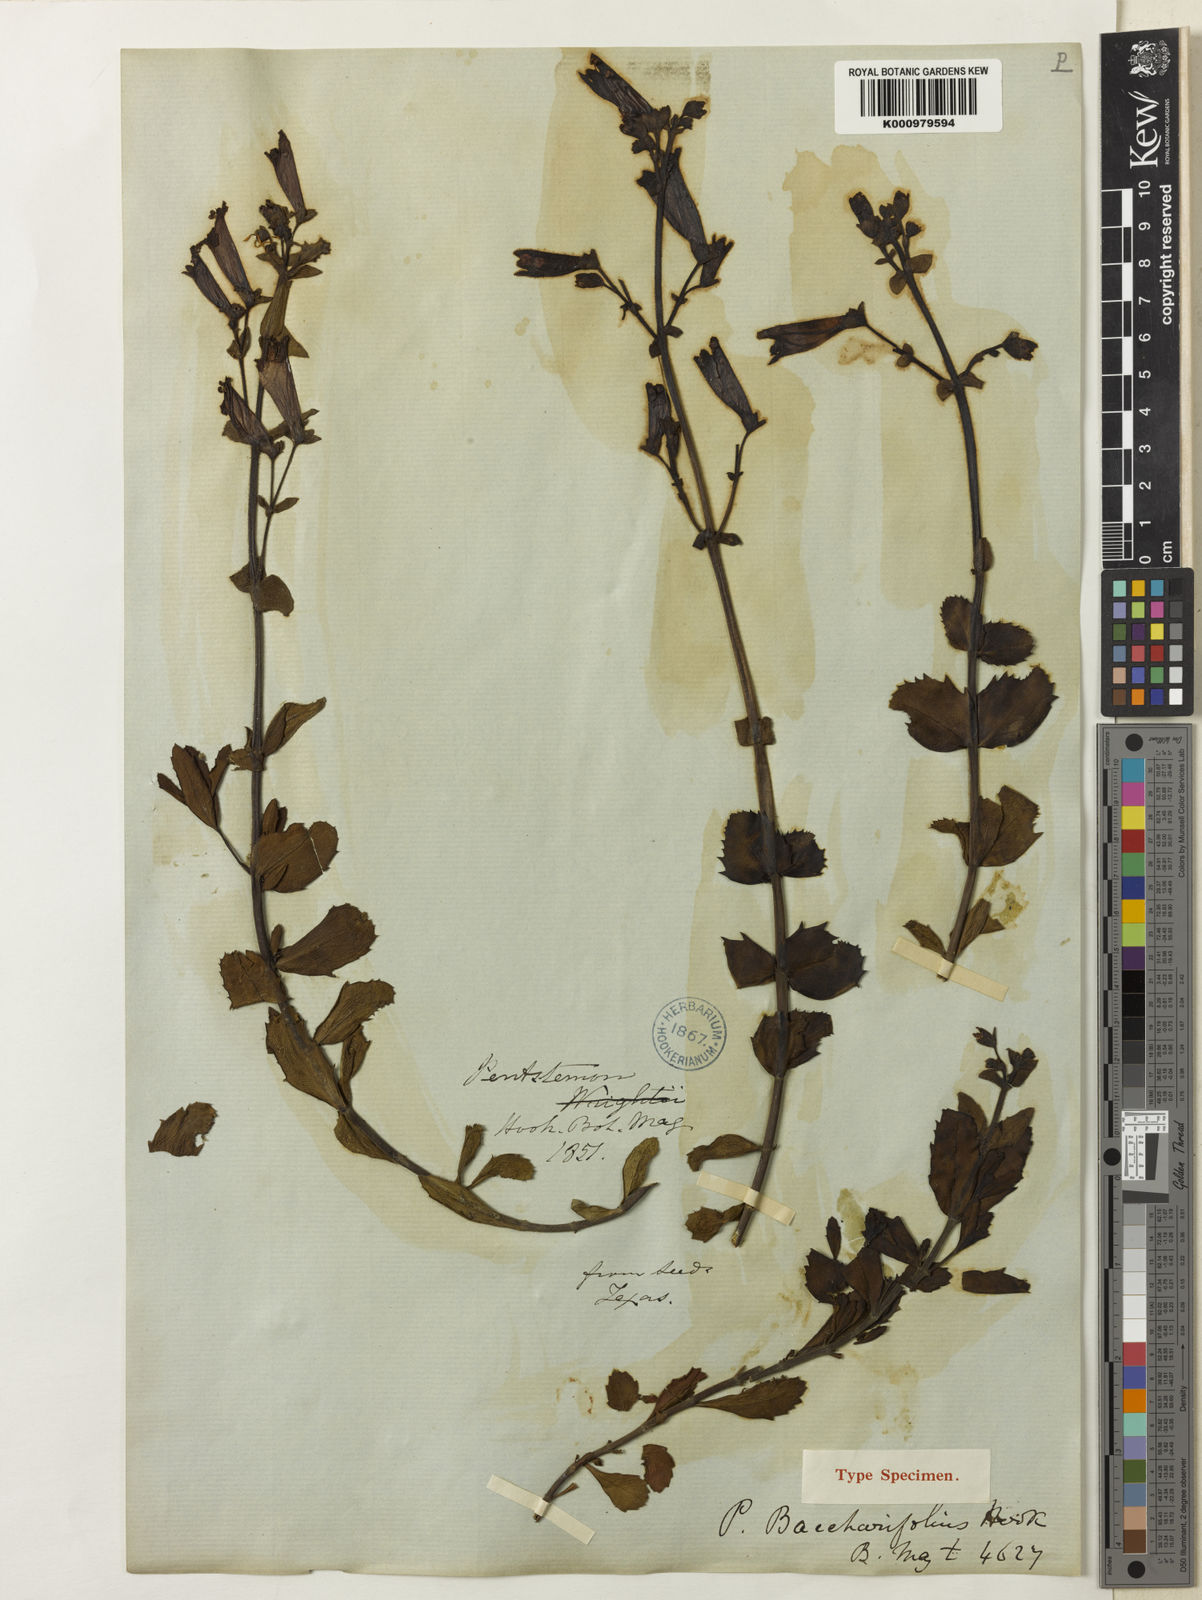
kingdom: Plantae
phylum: Tracheophyta
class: Magnoliopsida
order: Lamiales
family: Plantaginaceae
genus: Penstemon
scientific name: Penstemon baccharifolius
